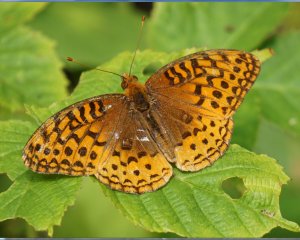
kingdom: Animalia
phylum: Arthropoda
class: Insecta
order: Lepidoptera
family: Nymphalidae
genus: Speyeria
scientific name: Speyeria cybele
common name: Great Spangled Fritillary
